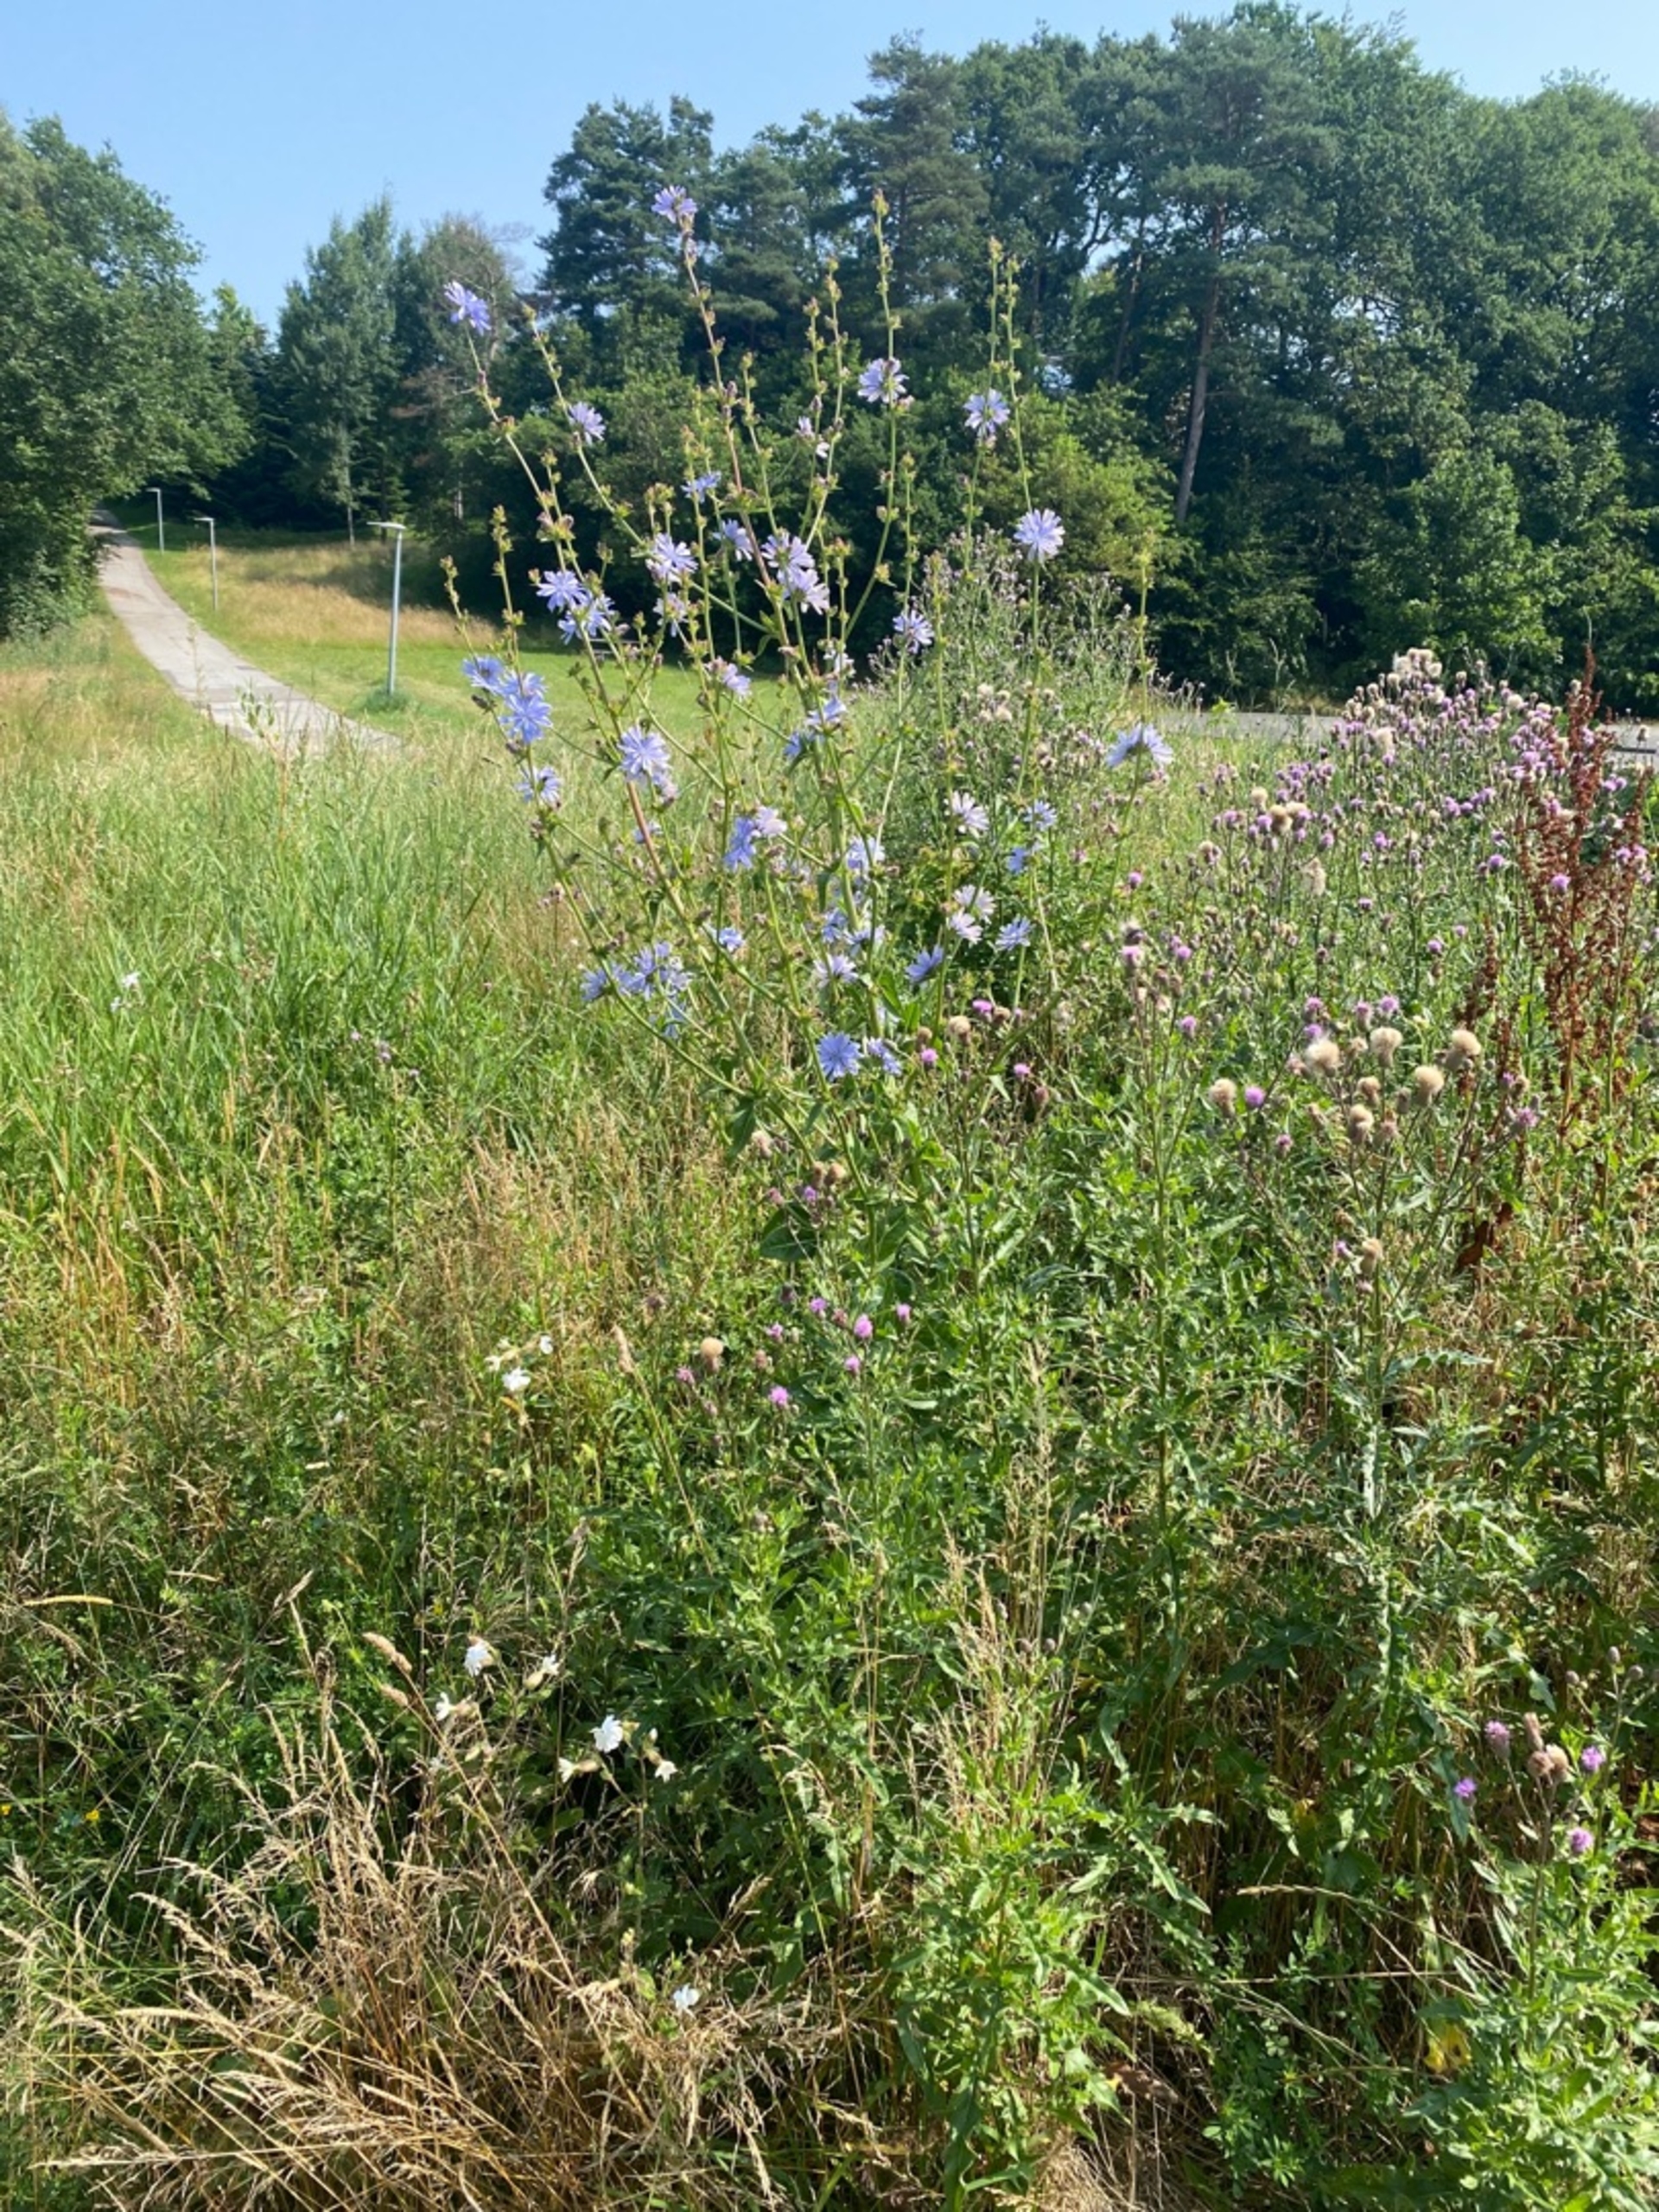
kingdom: Plantae
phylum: Tracheophyta
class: Magnoliopsida
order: Asterales
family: Asteraceae
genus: Cichorium
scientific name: Cichorium intybus
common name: Cikorie
